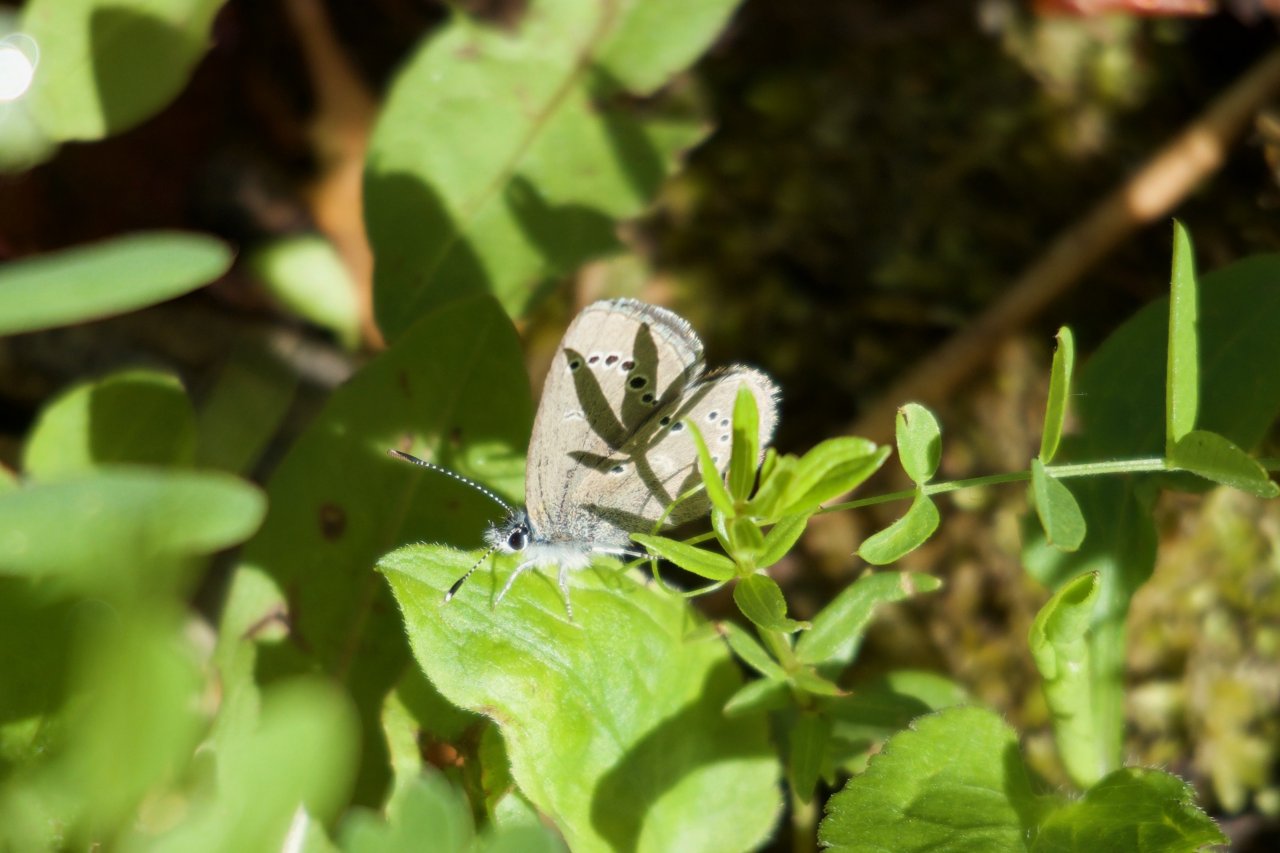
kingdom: Animalia
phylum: Arthropoda
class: Insecta
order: Lepidoptera
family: Lycaenidae
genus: Glaucopsyche
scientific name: Glaucopsyche lygdamus
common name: Silvery Blue
